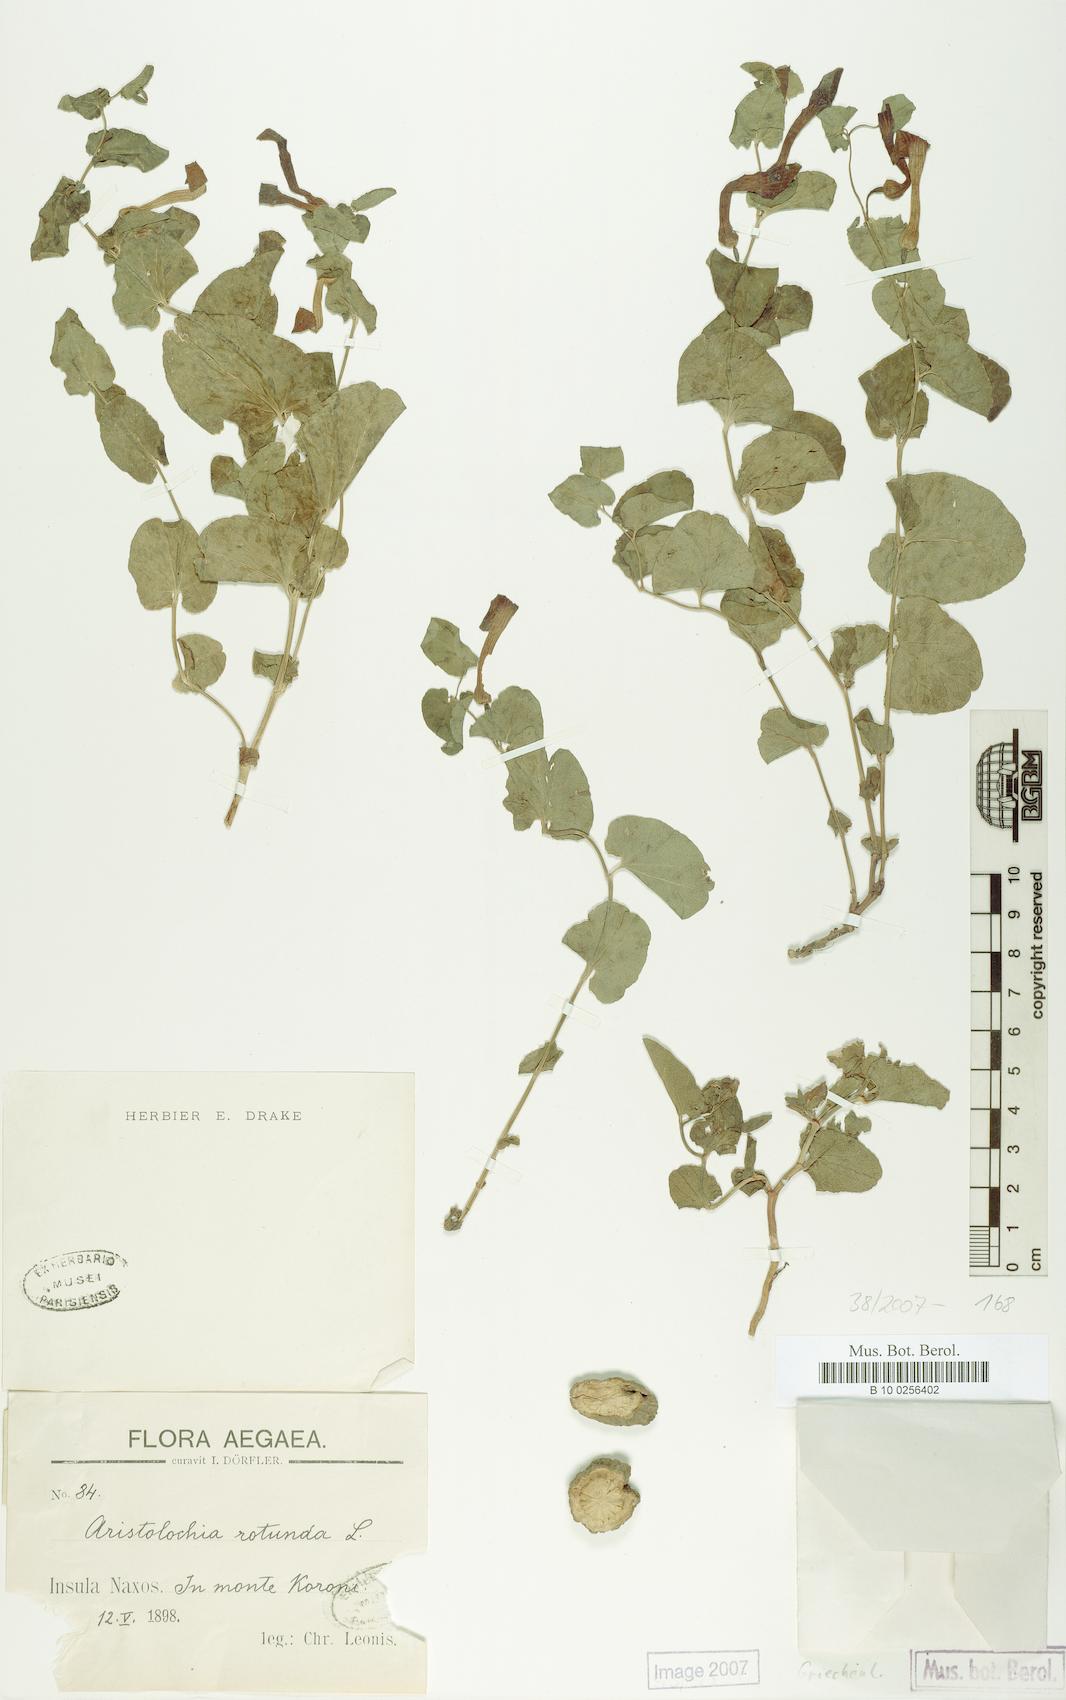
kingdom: Plantae
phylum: Tracheophyta
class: Magnoliopsida
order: Piperales
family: Aristolochiaceae
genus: Aristolochia
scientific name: Aristolochia rotunda
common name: Smearwort
